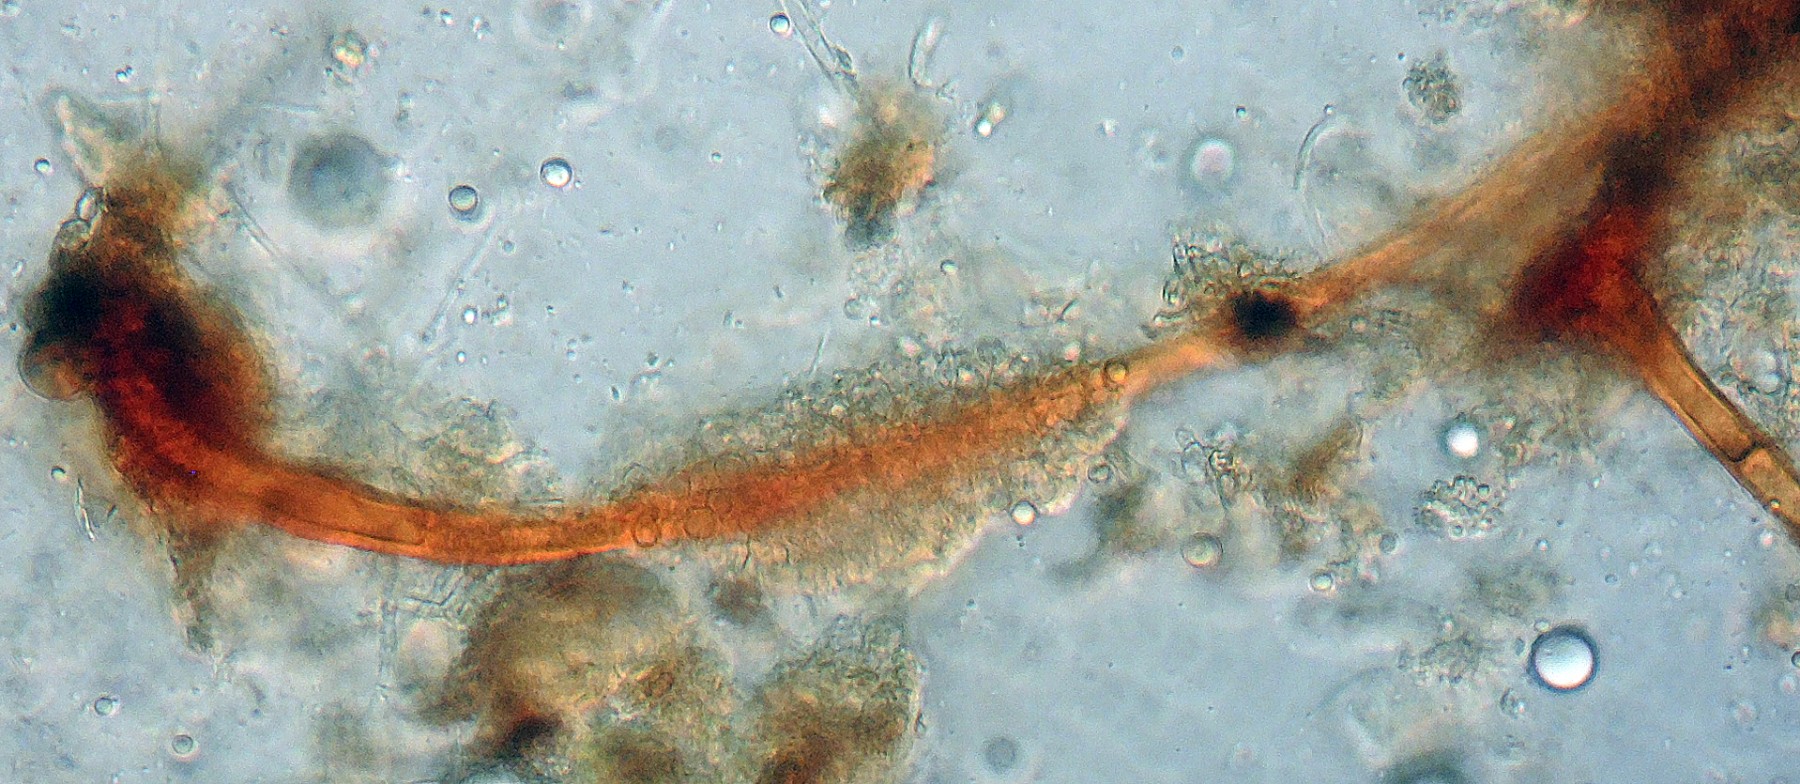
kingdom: Fungi
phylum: Ascomycota
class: Sordariomycetes
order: Hypocreales
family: Nectriaceae
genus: Chaetopsina
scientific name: Chaetopsina fulva
